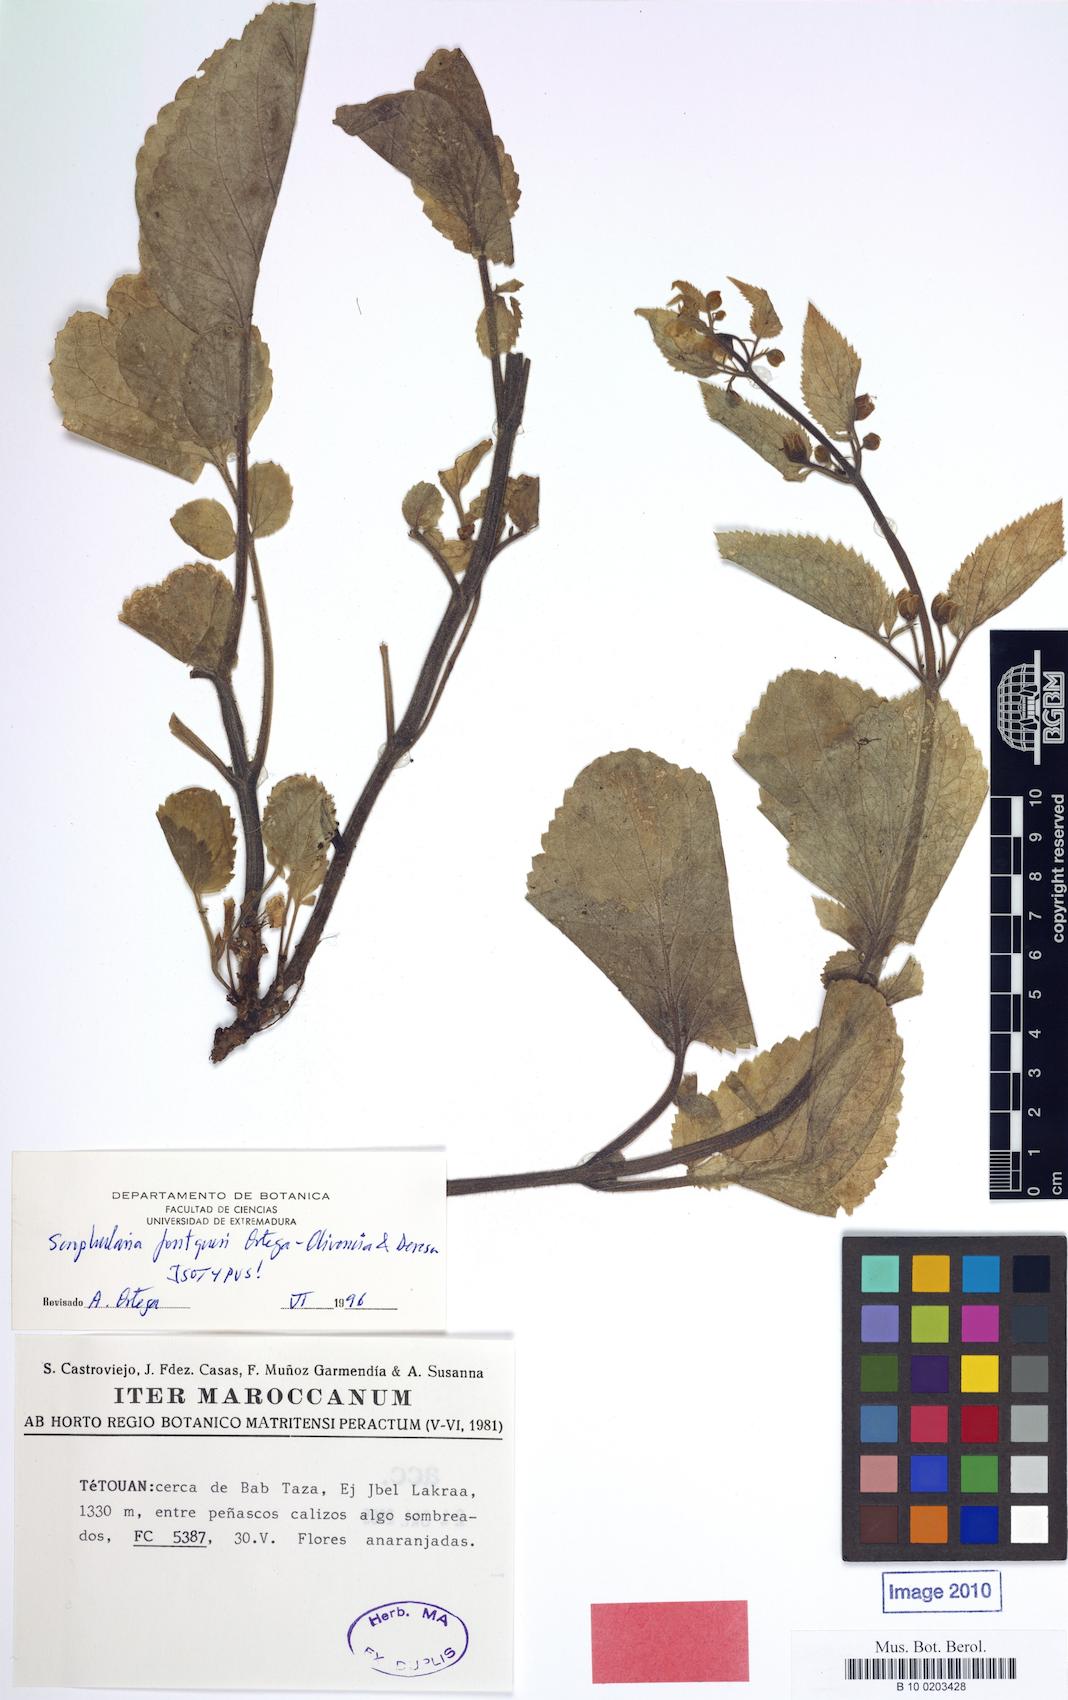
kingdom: Plantae
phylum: Tracheophyta
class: Magnoliopsida
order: Lamiales
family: Scrophulariaceae
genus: Scrophularia
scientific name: Scrophularia fontqueri
